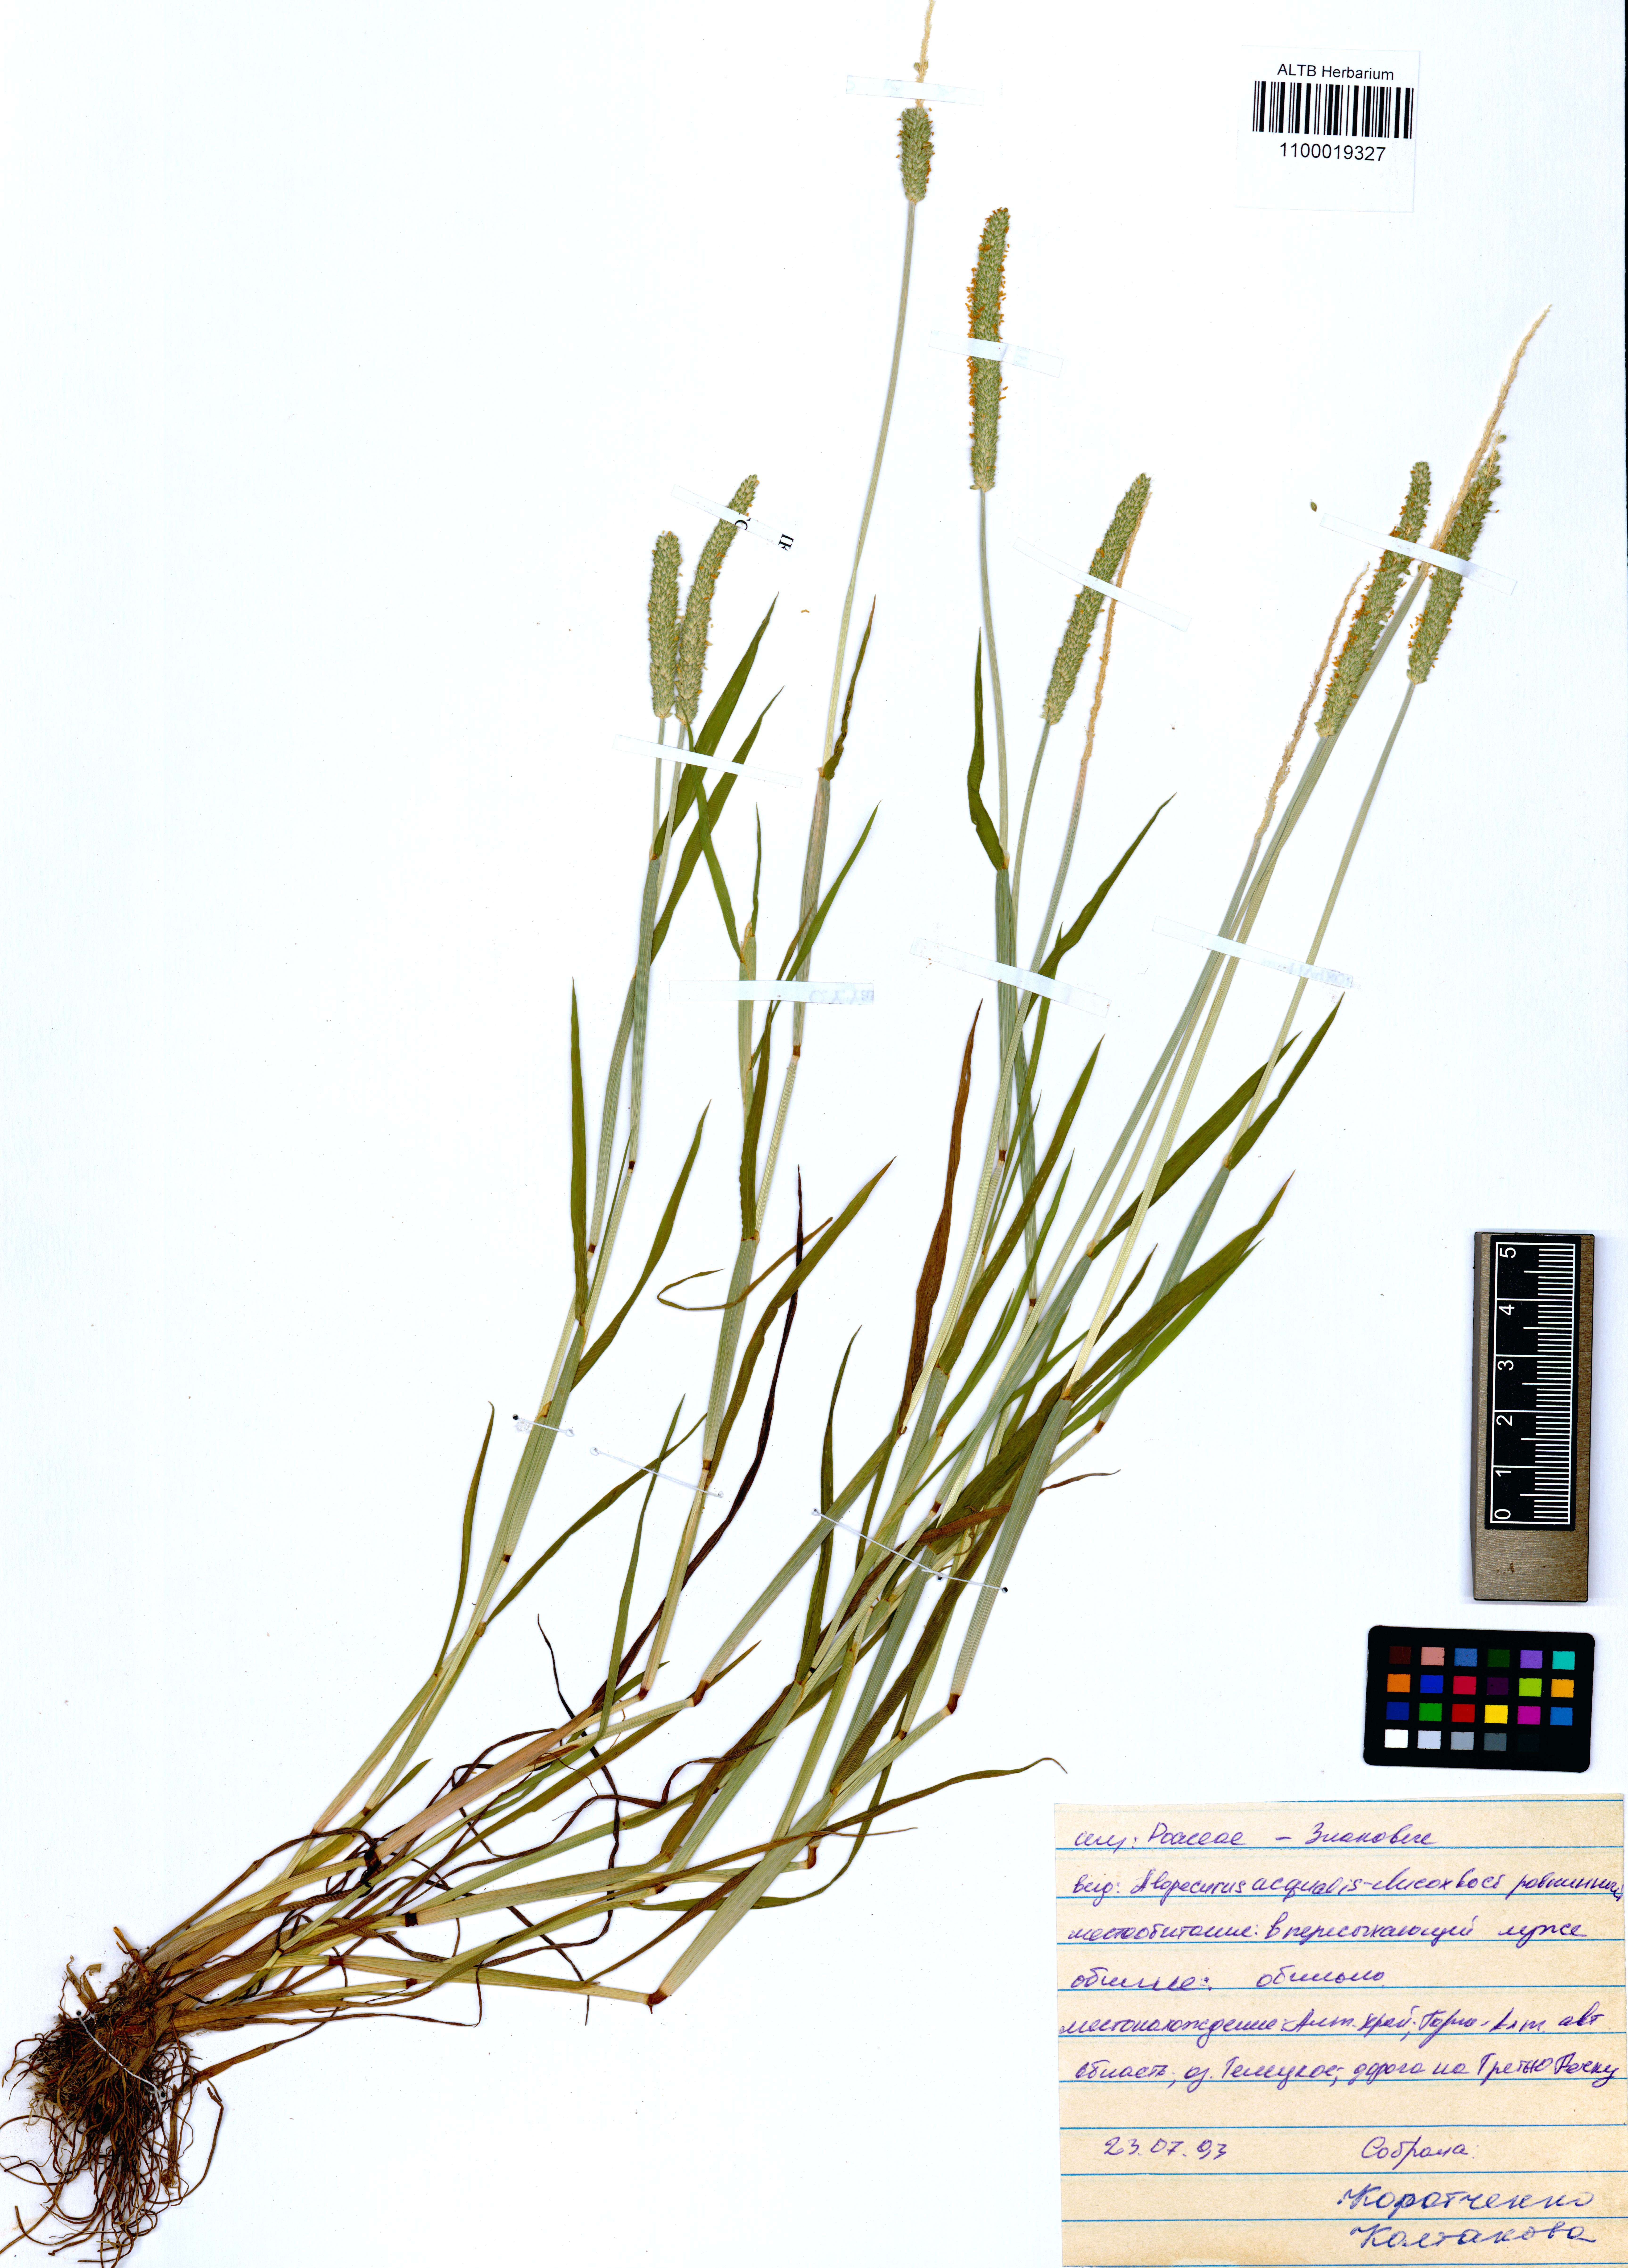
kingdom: Plantae
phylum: Tracheophyta
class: Liliopsida
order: Poales
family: Poaceae
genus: Alopecurus
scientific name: Alopecurus aequalis
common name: Orange foxtail
